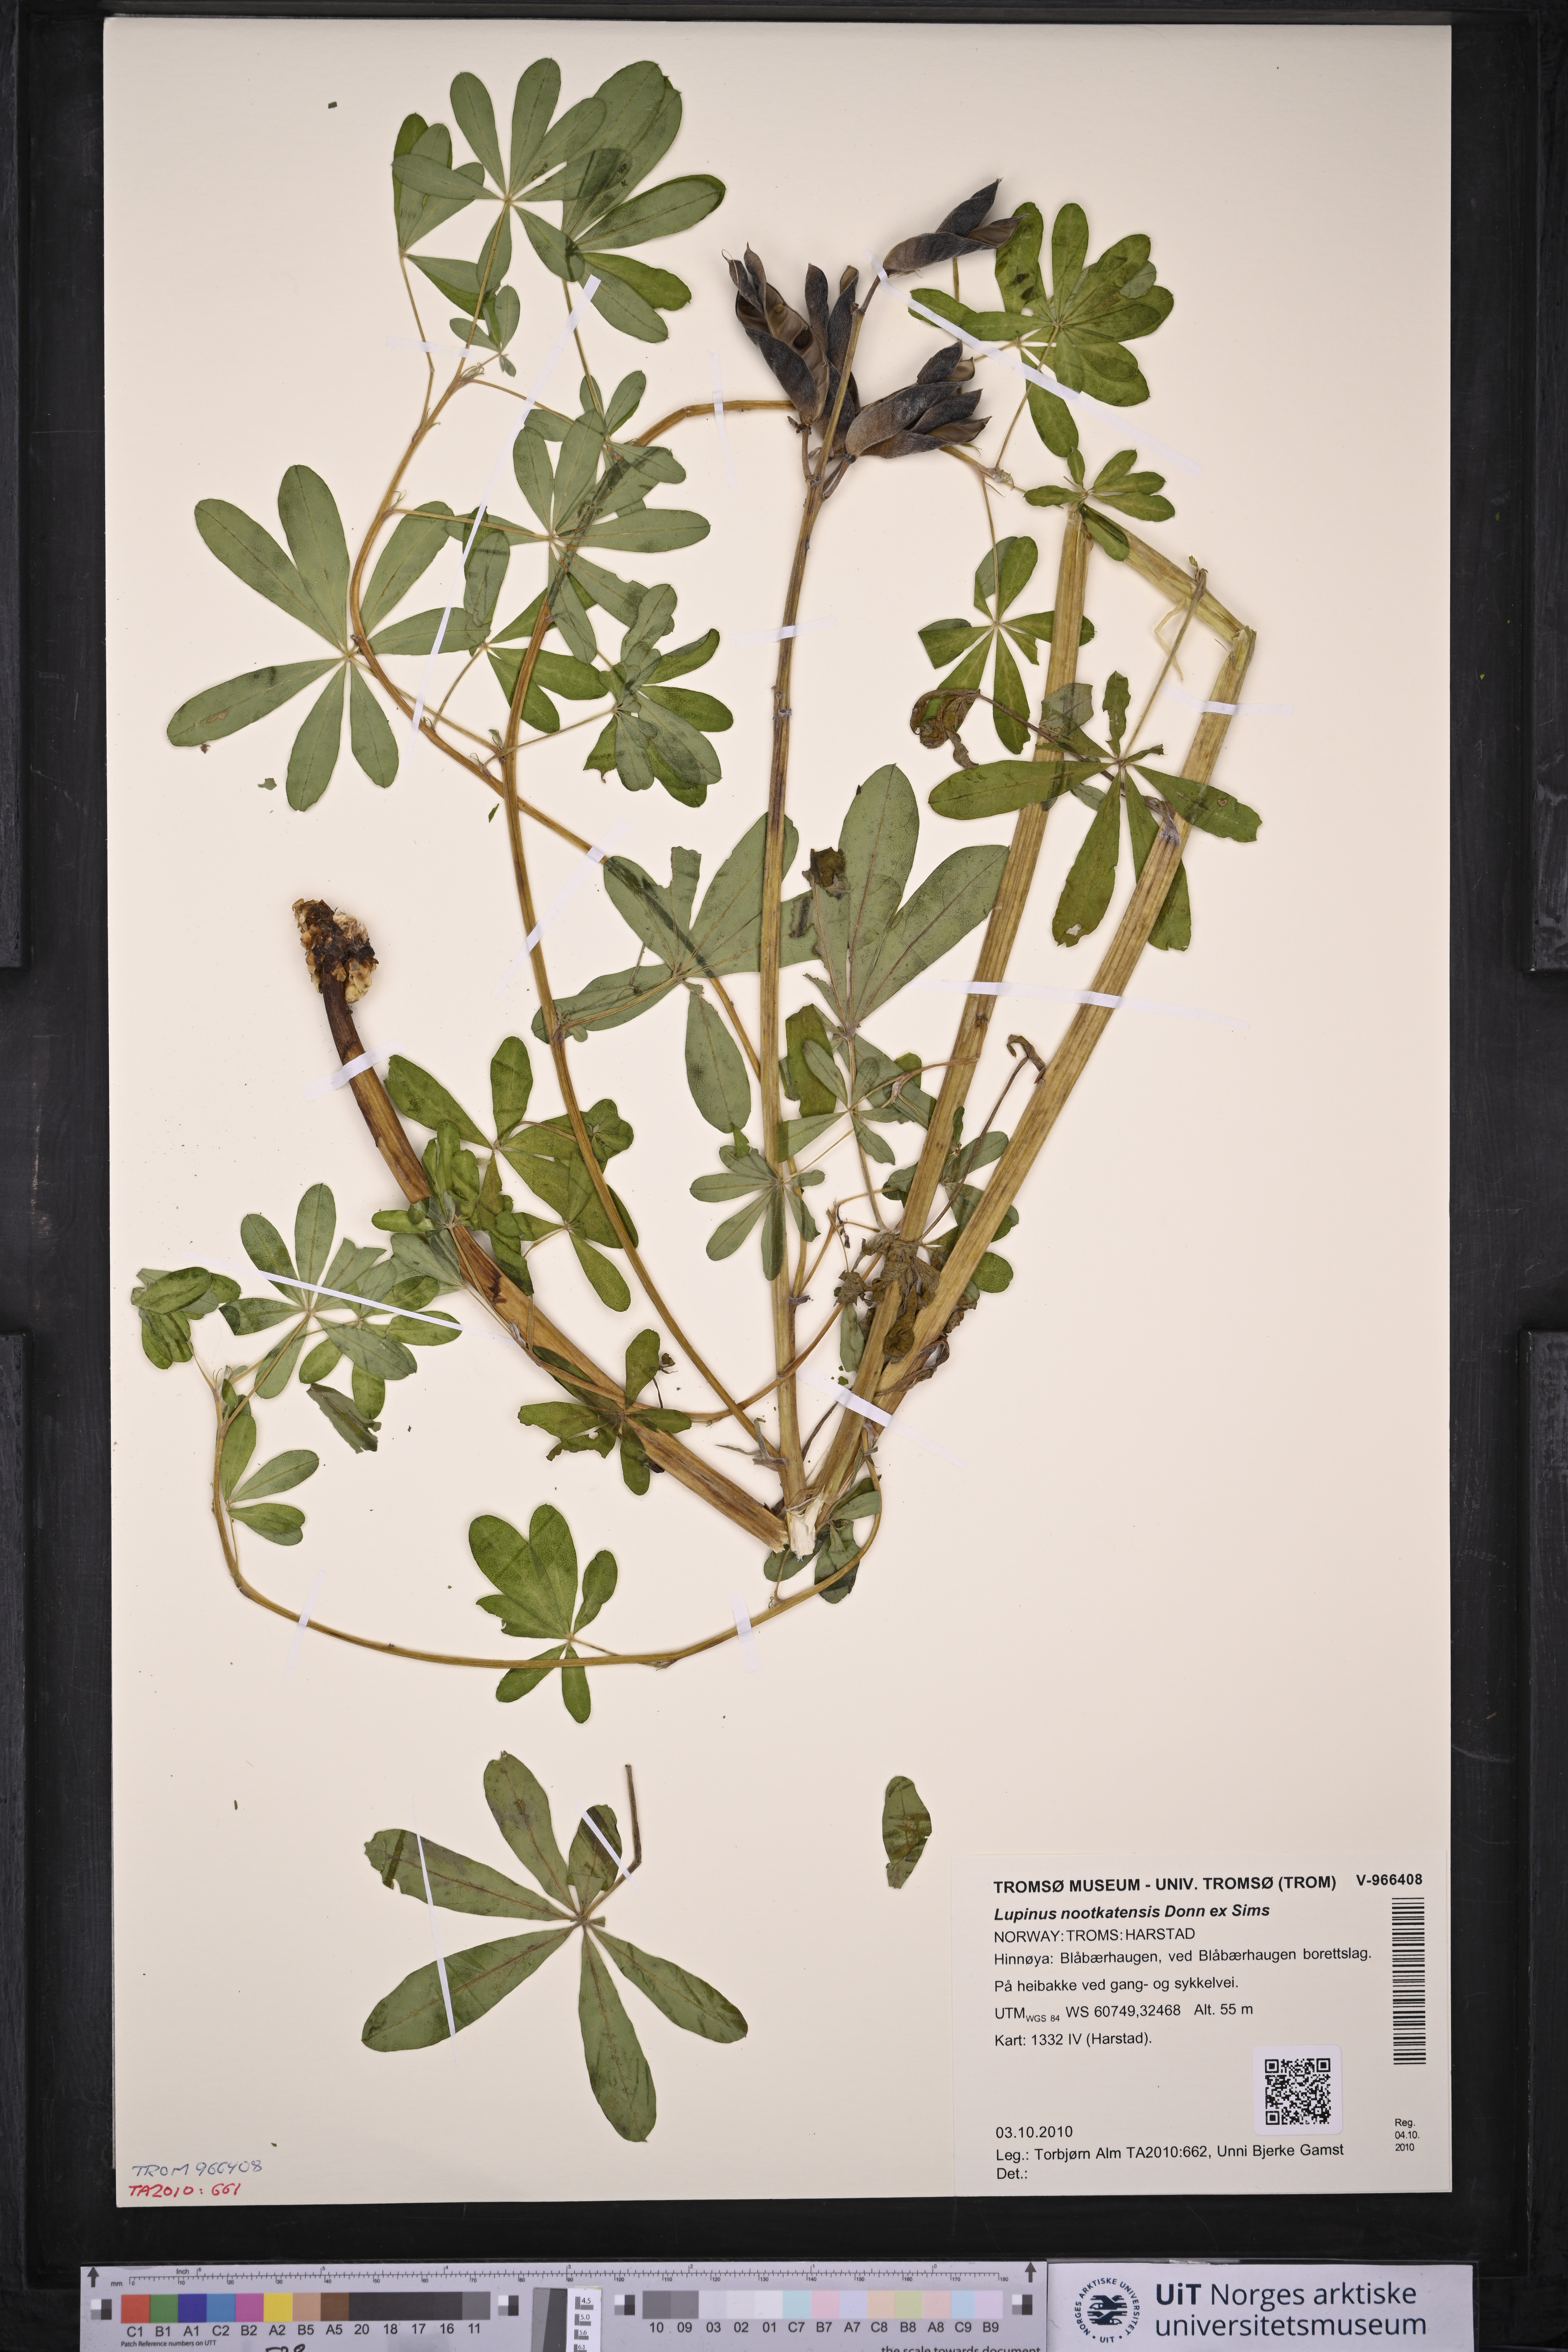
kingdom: Plantae
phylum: Tracheophyta
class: Magnoliopsida
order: Fabales
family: Fabaceae
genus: Lupinus
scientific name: Lupinus nootkatensis
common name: Nootka lupine
